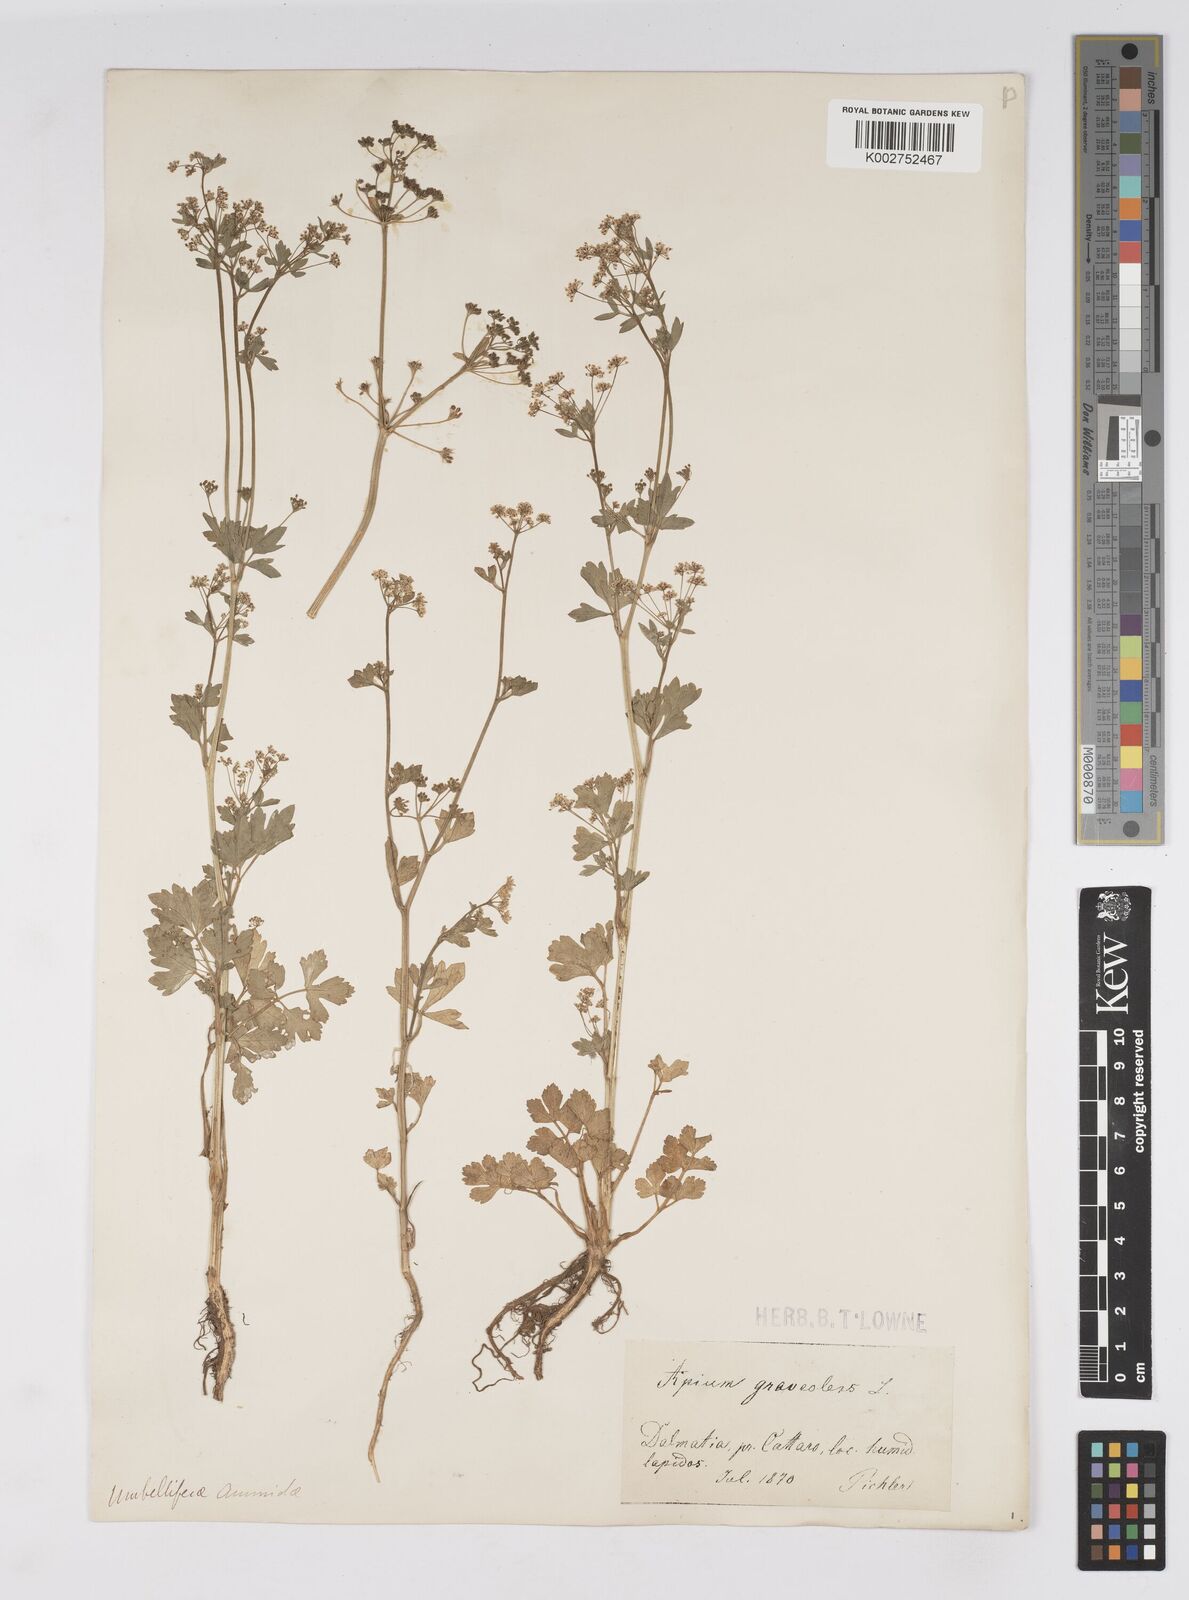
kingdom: Plantae
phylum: Tracheophyta
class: Magnoliopsida
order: Apiales
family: Apiaceae
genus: Apium
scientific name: Apium graveolens
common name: Wild celery
